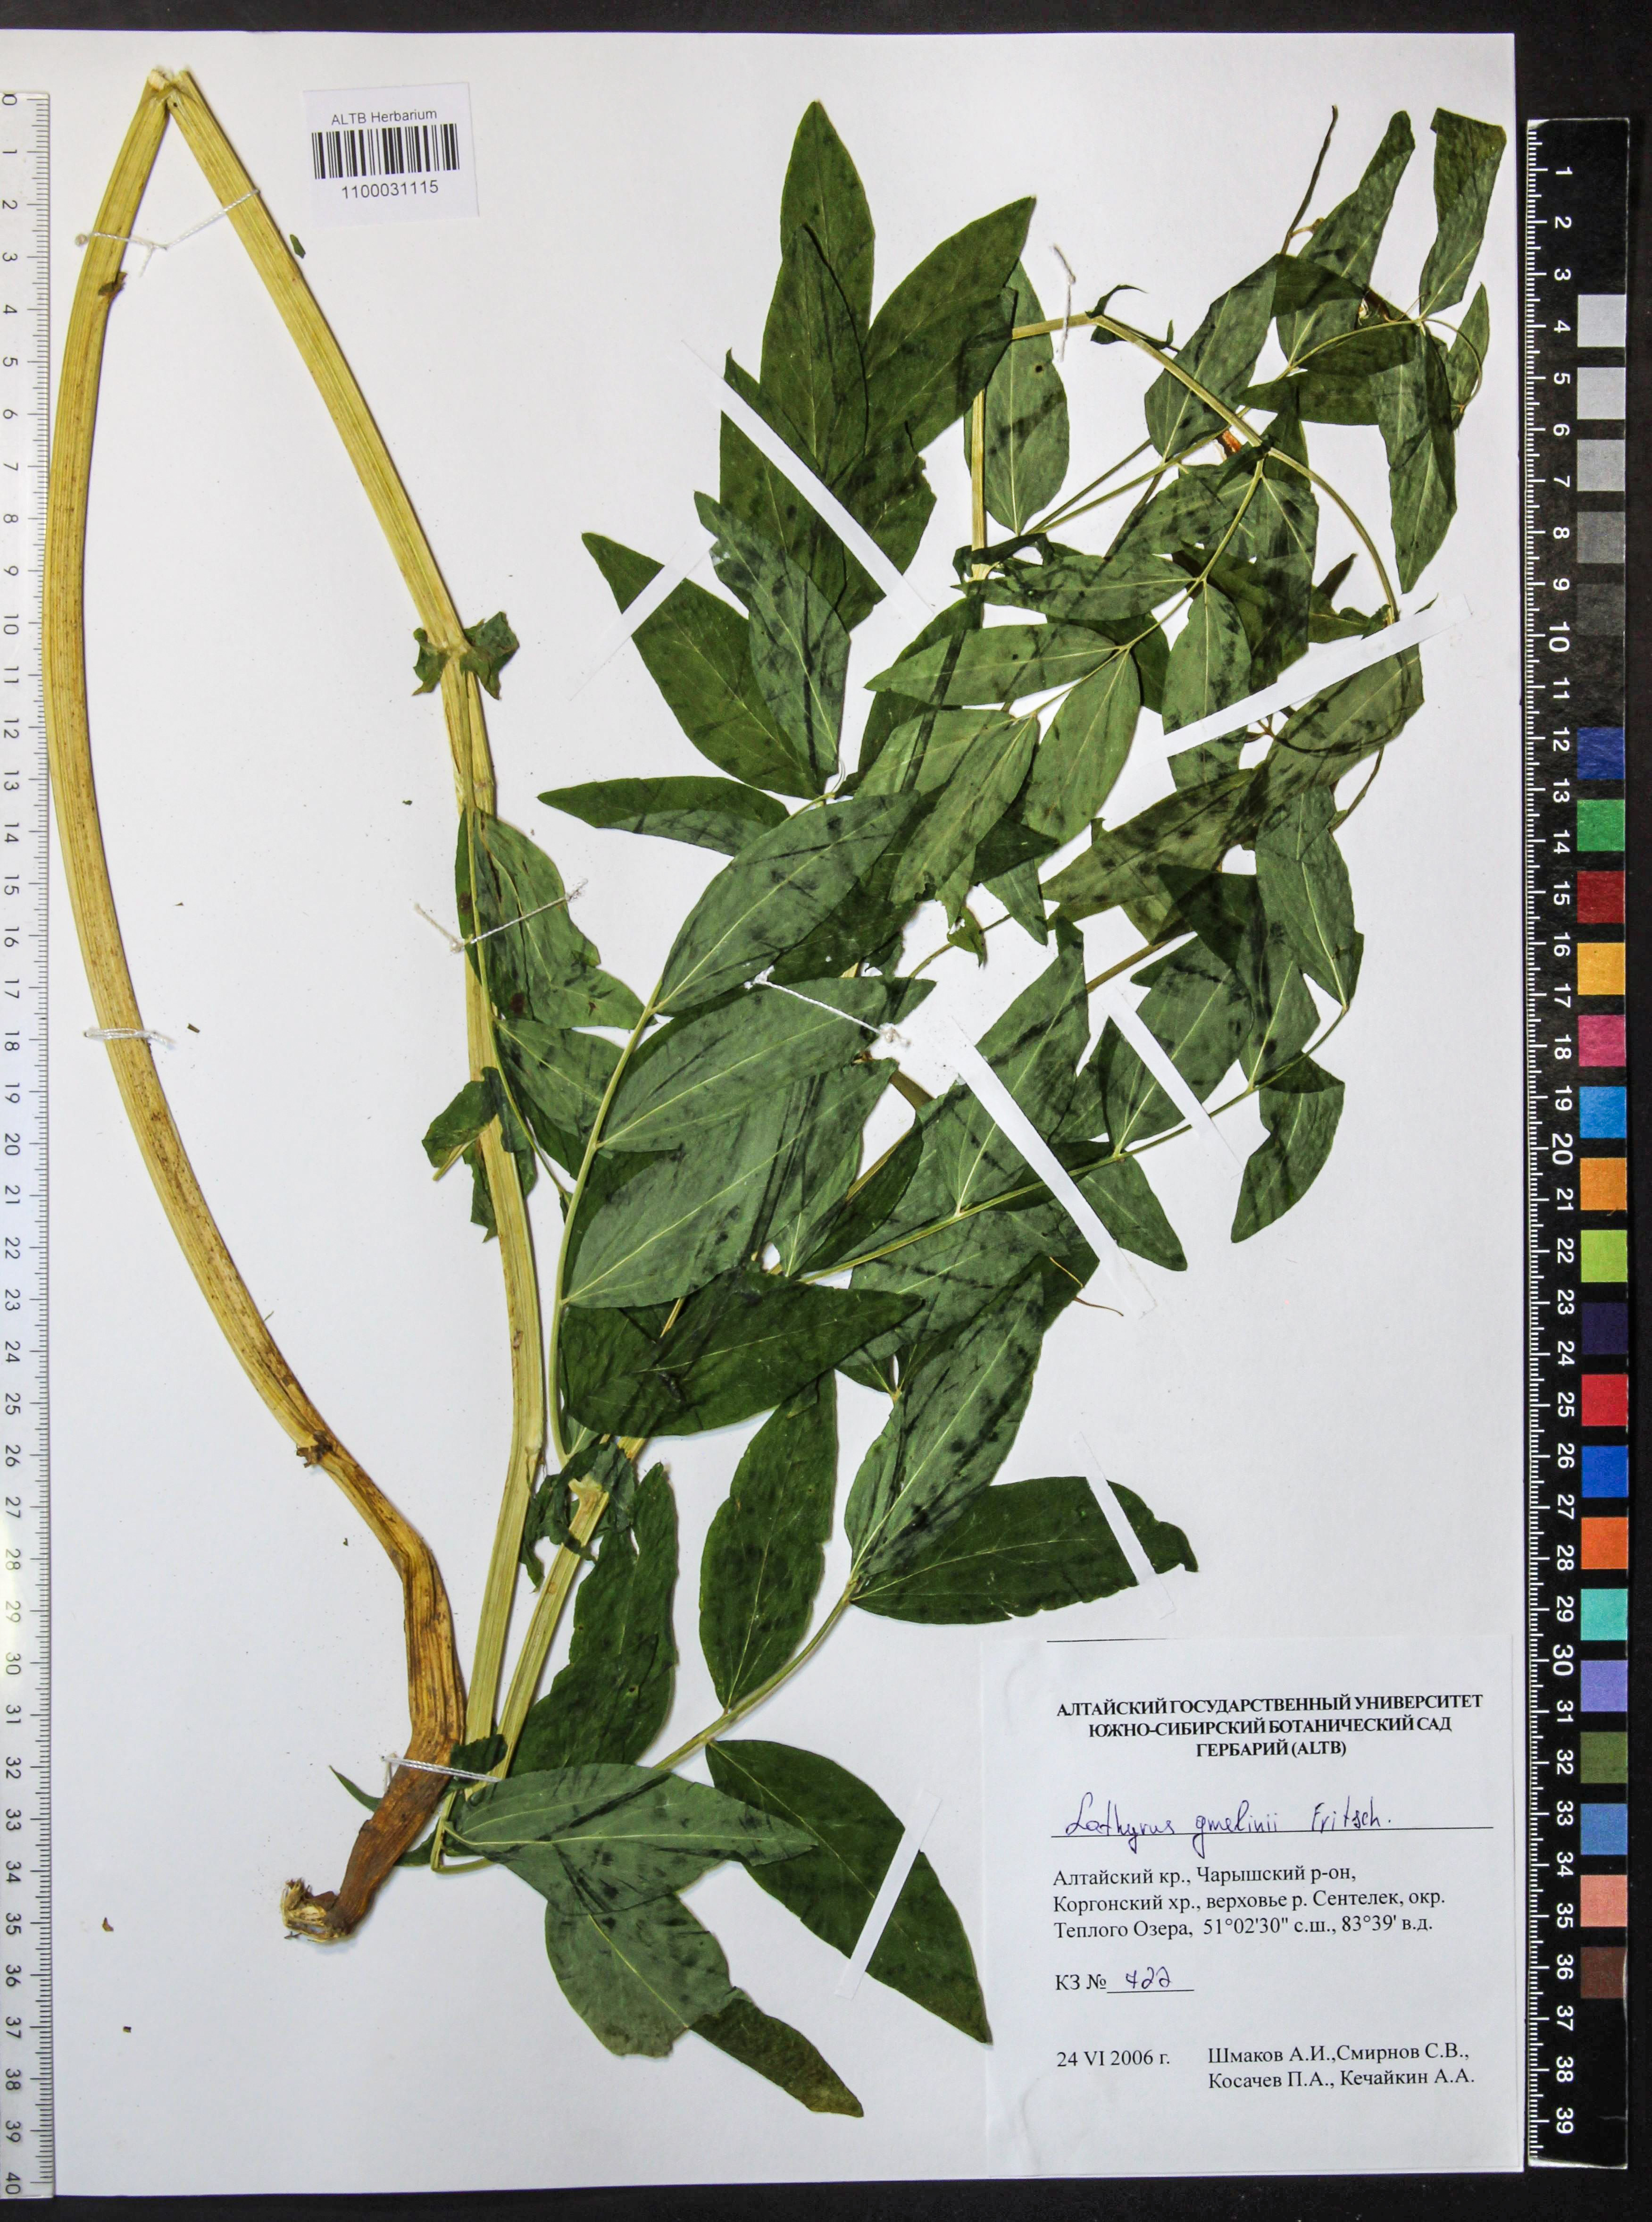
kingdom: Plantae
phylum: Tracheophyta
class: Magnoliopsida
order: Fabales
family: Fabaceae
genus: Lathyrus
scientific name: Lathyrus gmelinii
